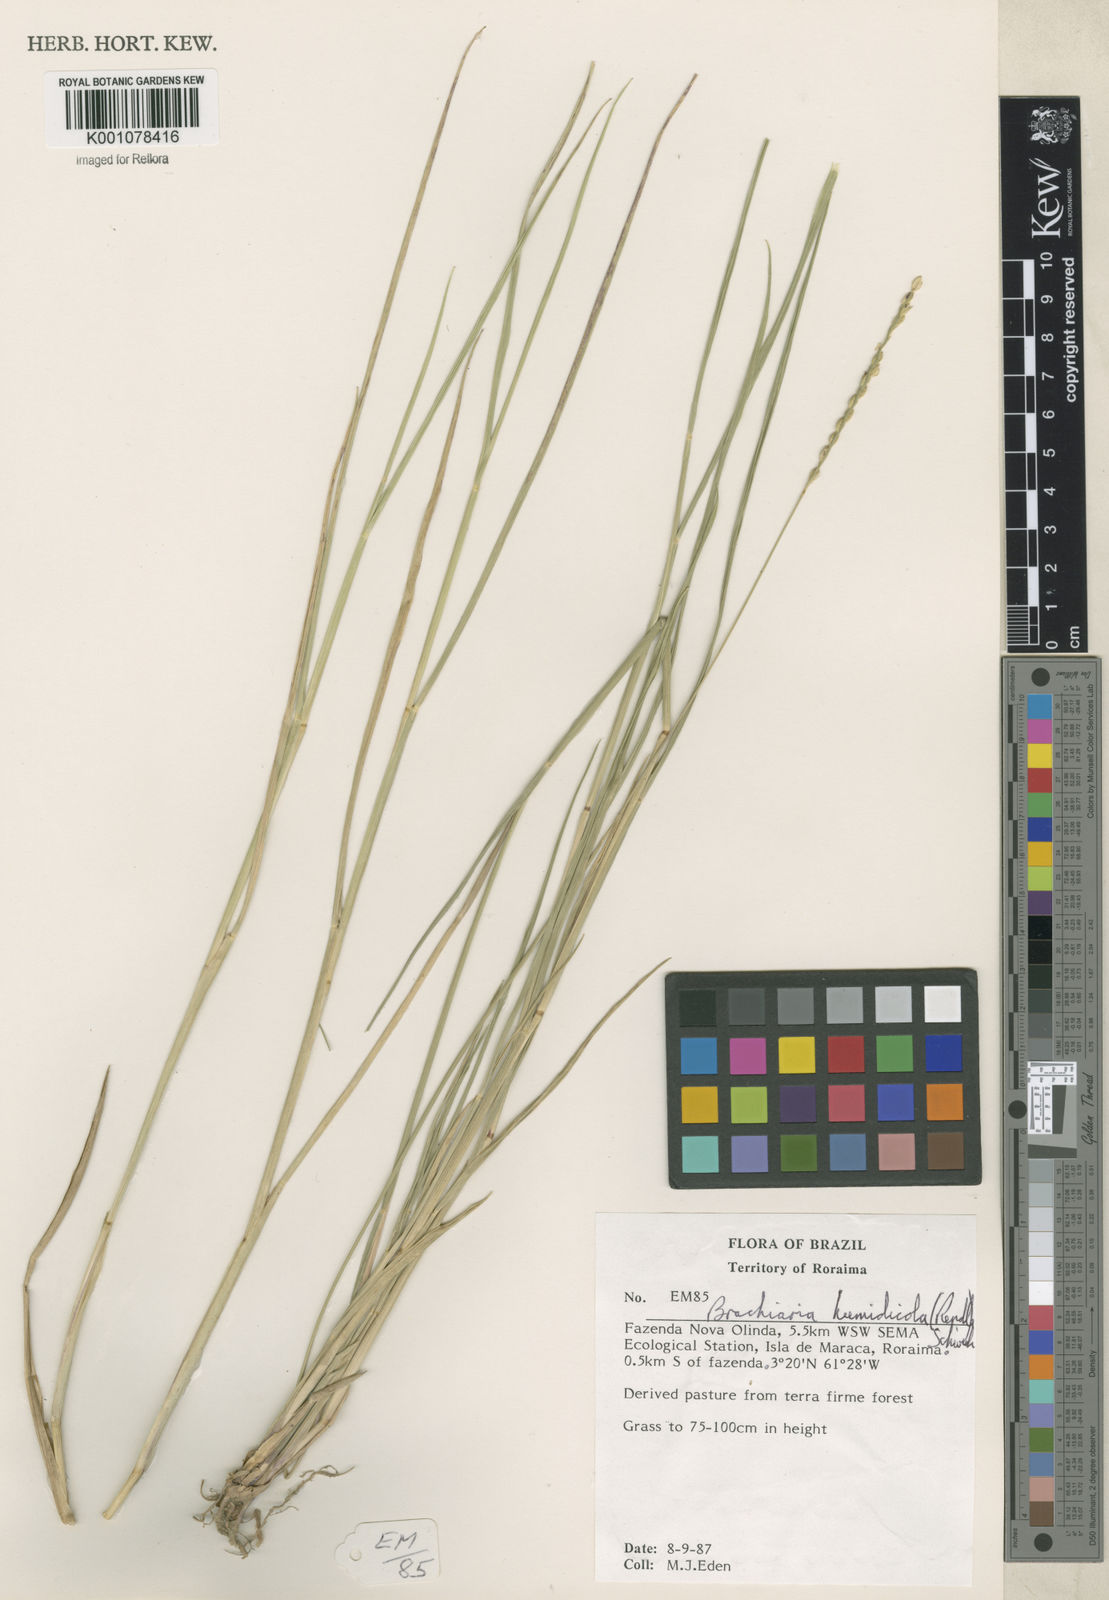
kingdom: Plantae
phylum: Tracheophyta
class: Liliopsida
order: Poales
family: Poaceae
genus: Urochloa
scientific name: Urochloa dictyoneura
